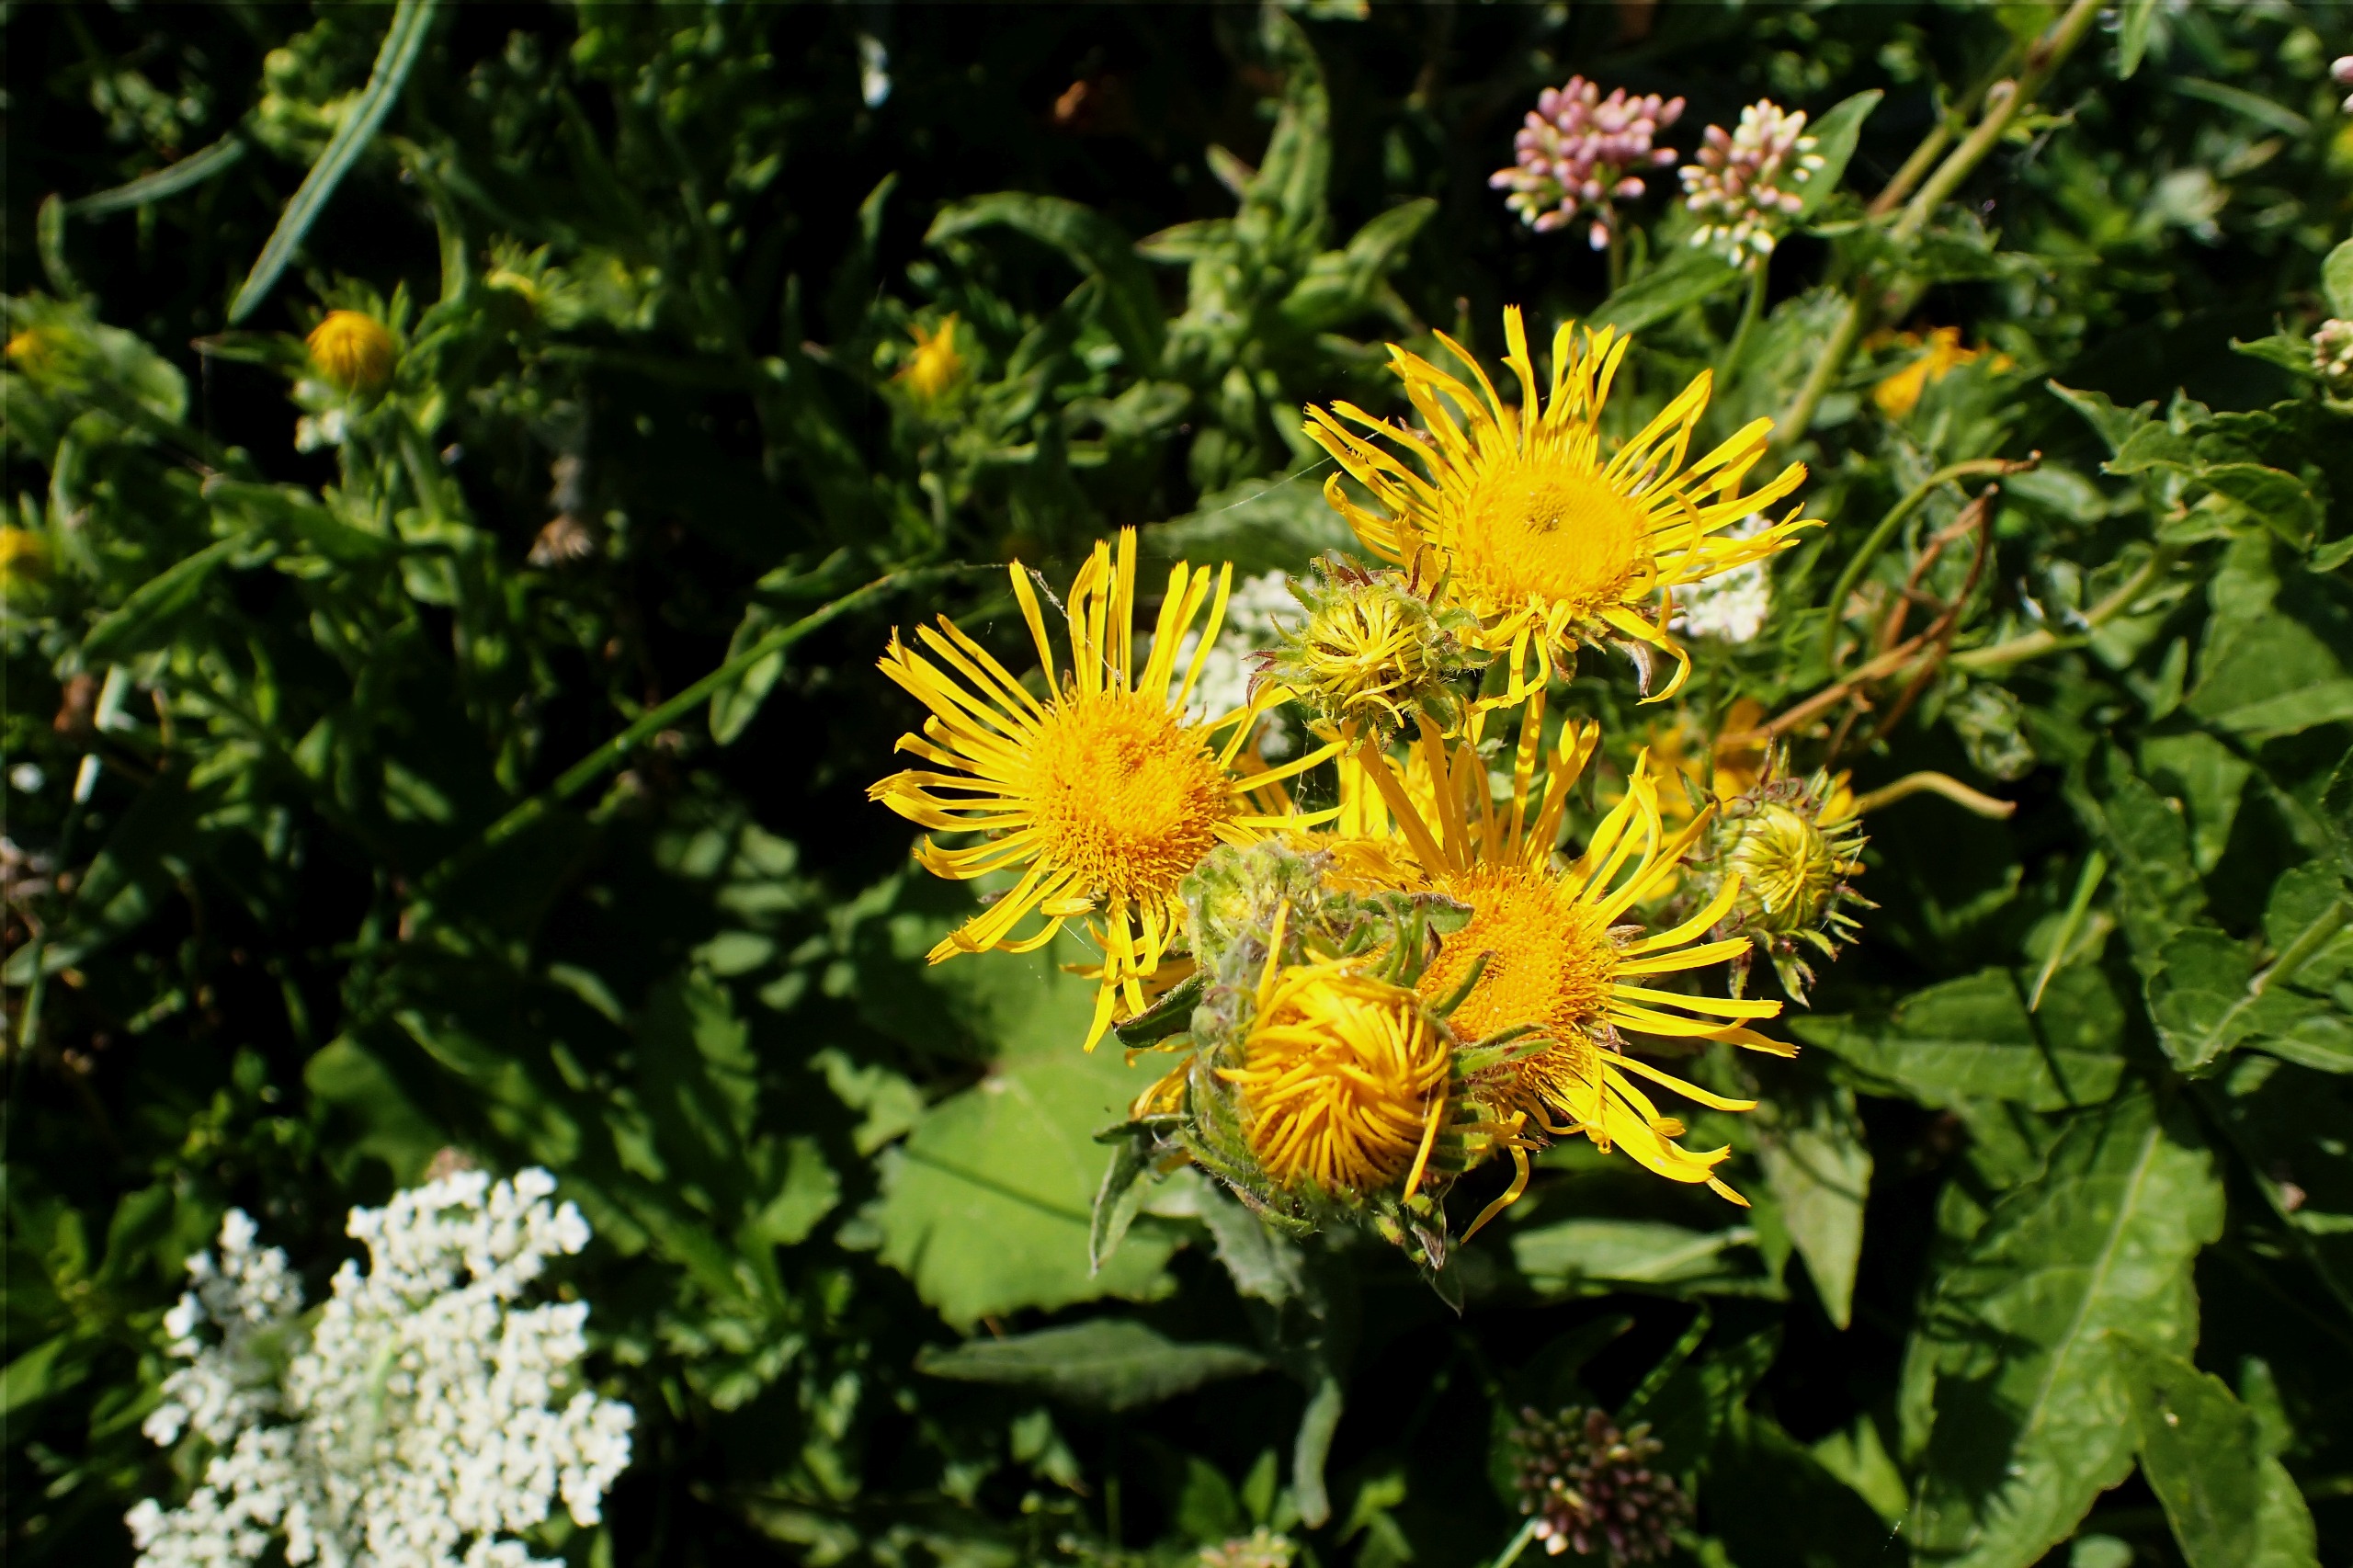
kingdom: Plantae
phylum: Tracheophyta
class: Magnoliopsida
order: Asterales
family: Asteraceae
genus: Pentanema
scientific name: Pentanema britannicum
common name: Soløje-alant
